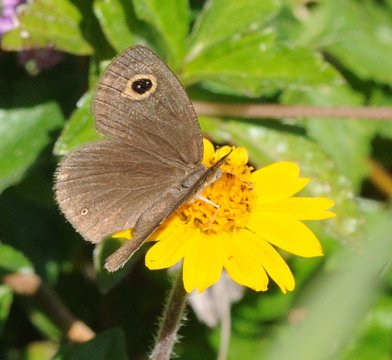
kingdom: Animalia
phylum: Arthropoda
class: Insecta
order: Lepidoptera
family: Nymphalidae
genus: Ypthima
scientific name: Ypthima impura
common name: Impure Ringlet
